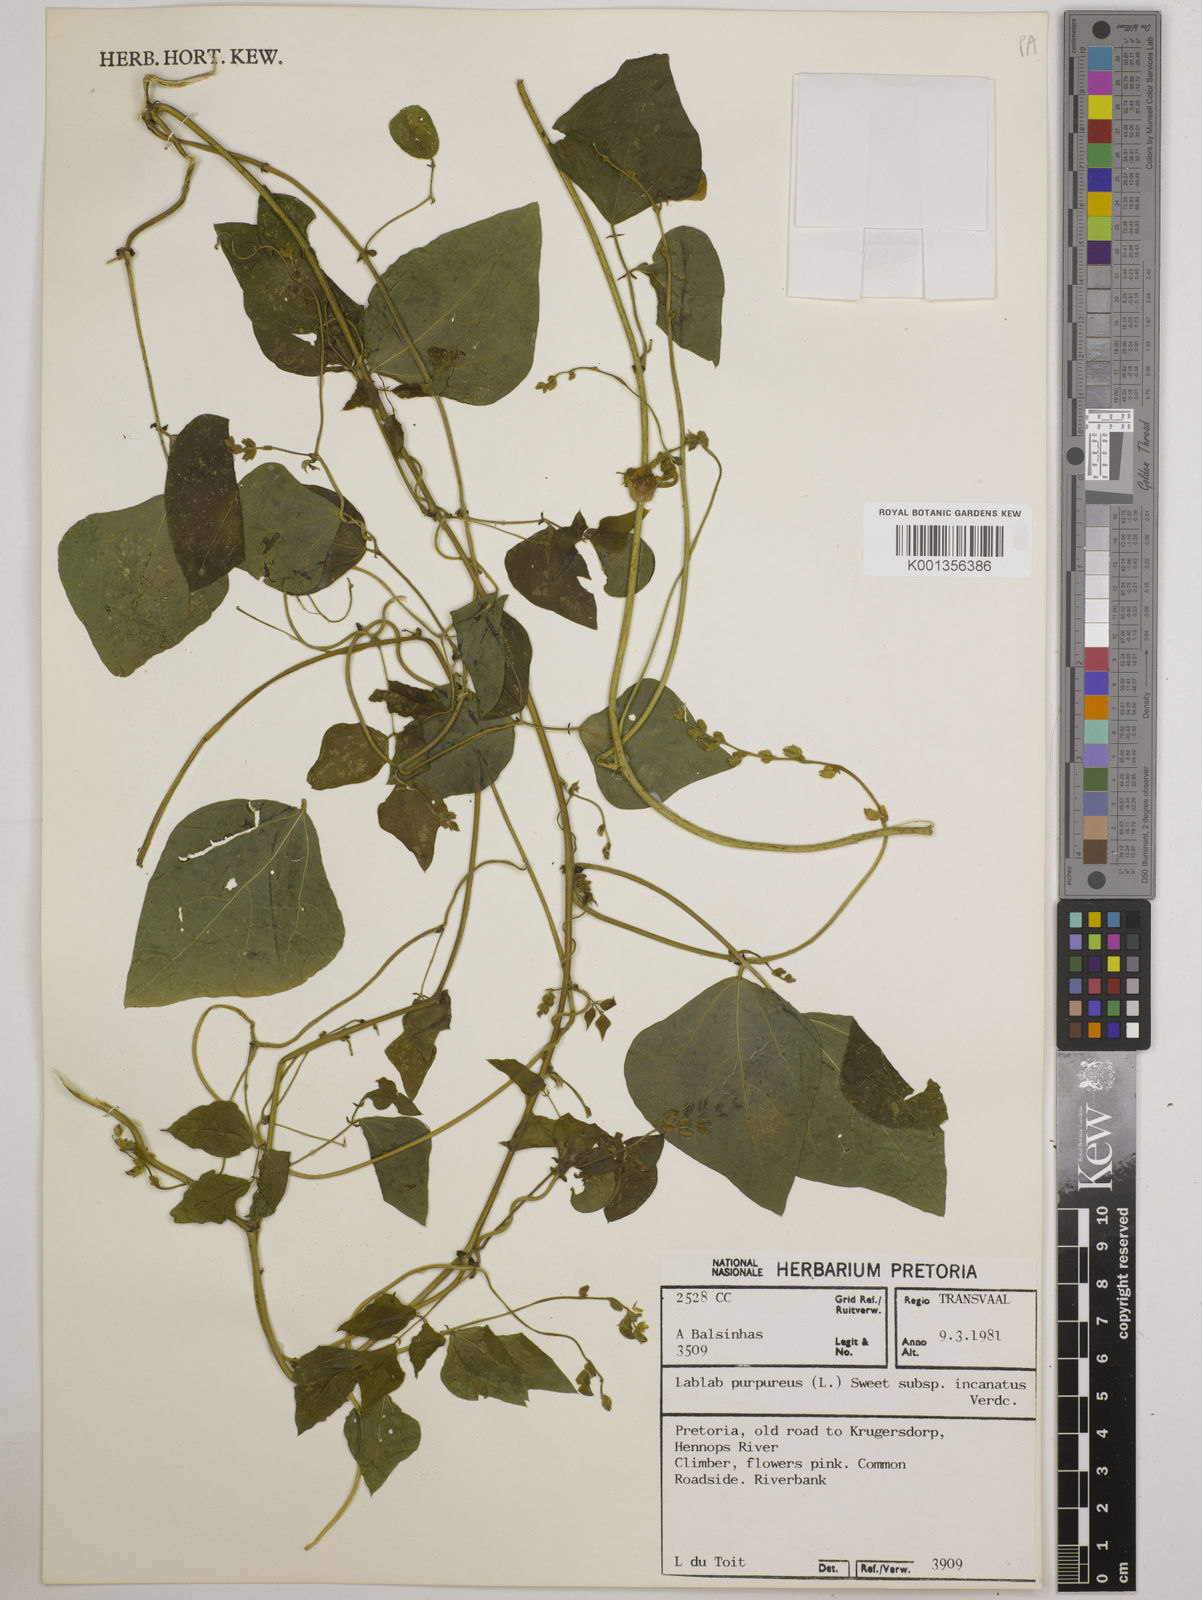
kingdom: Plantae
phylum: Tracheophyta
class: Magnoliopsida
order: Fabales
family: Fabaceae
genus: Lablab
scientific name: Lablab purpureus
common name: Lablab-bean
